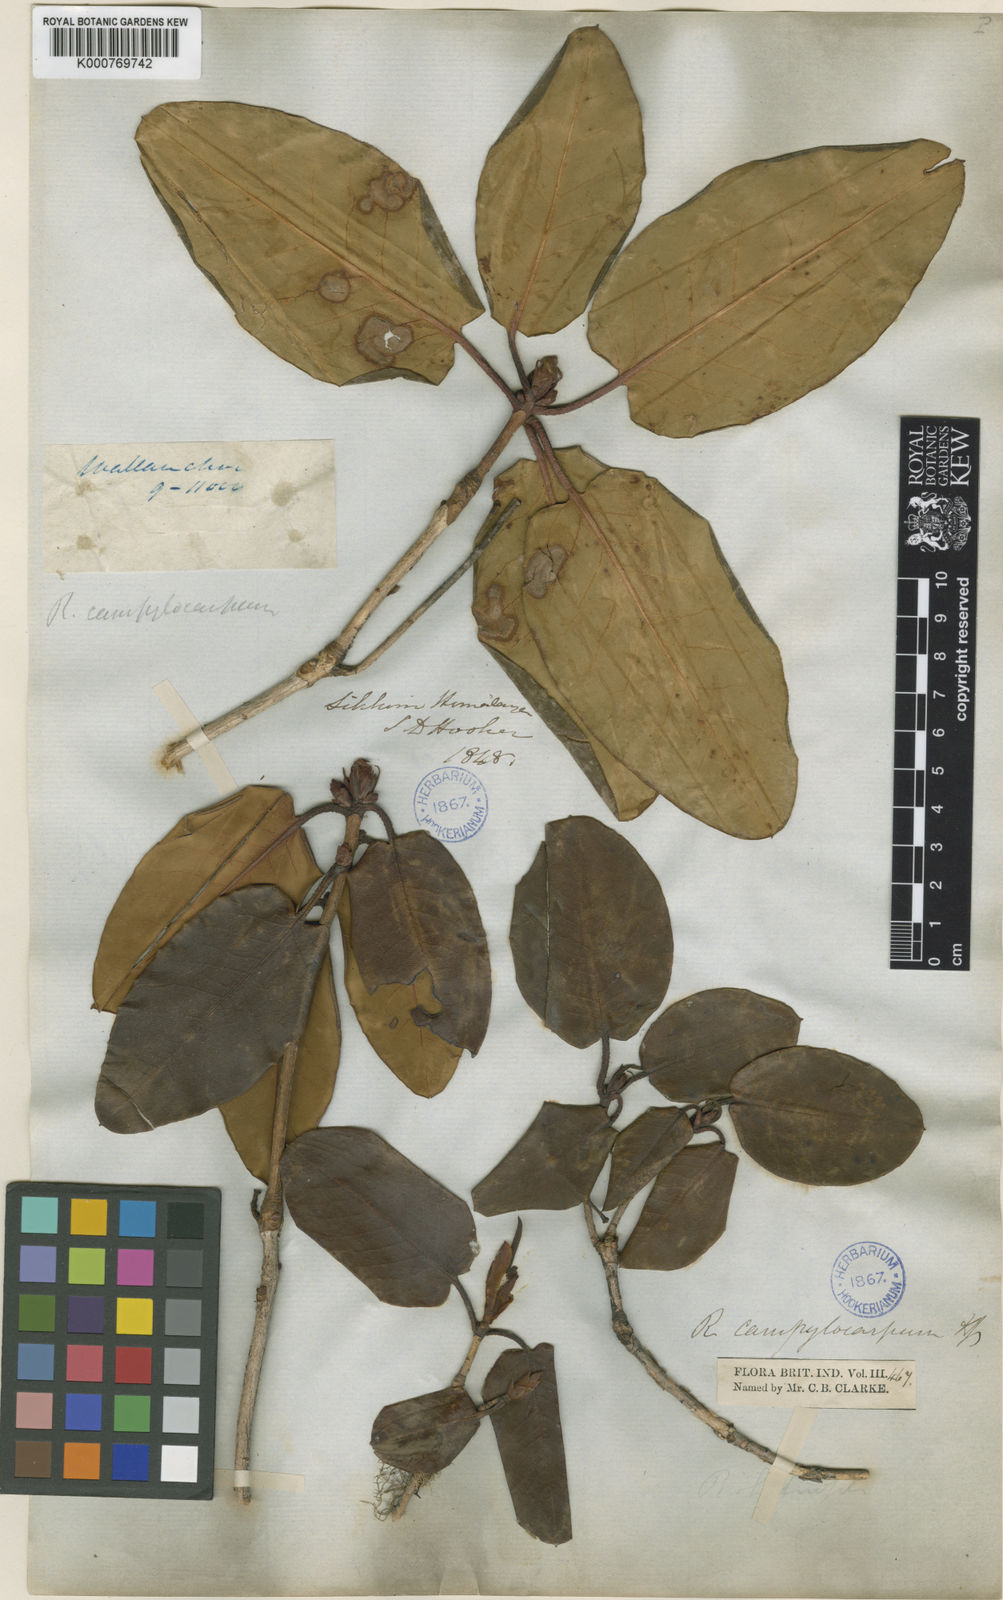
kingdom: Plantae
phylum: Tracheophyta
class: Magnoliopsida
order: Ericales
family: Ericaceae
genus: Rhododendron
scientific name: Rhododendron campylocarpum
